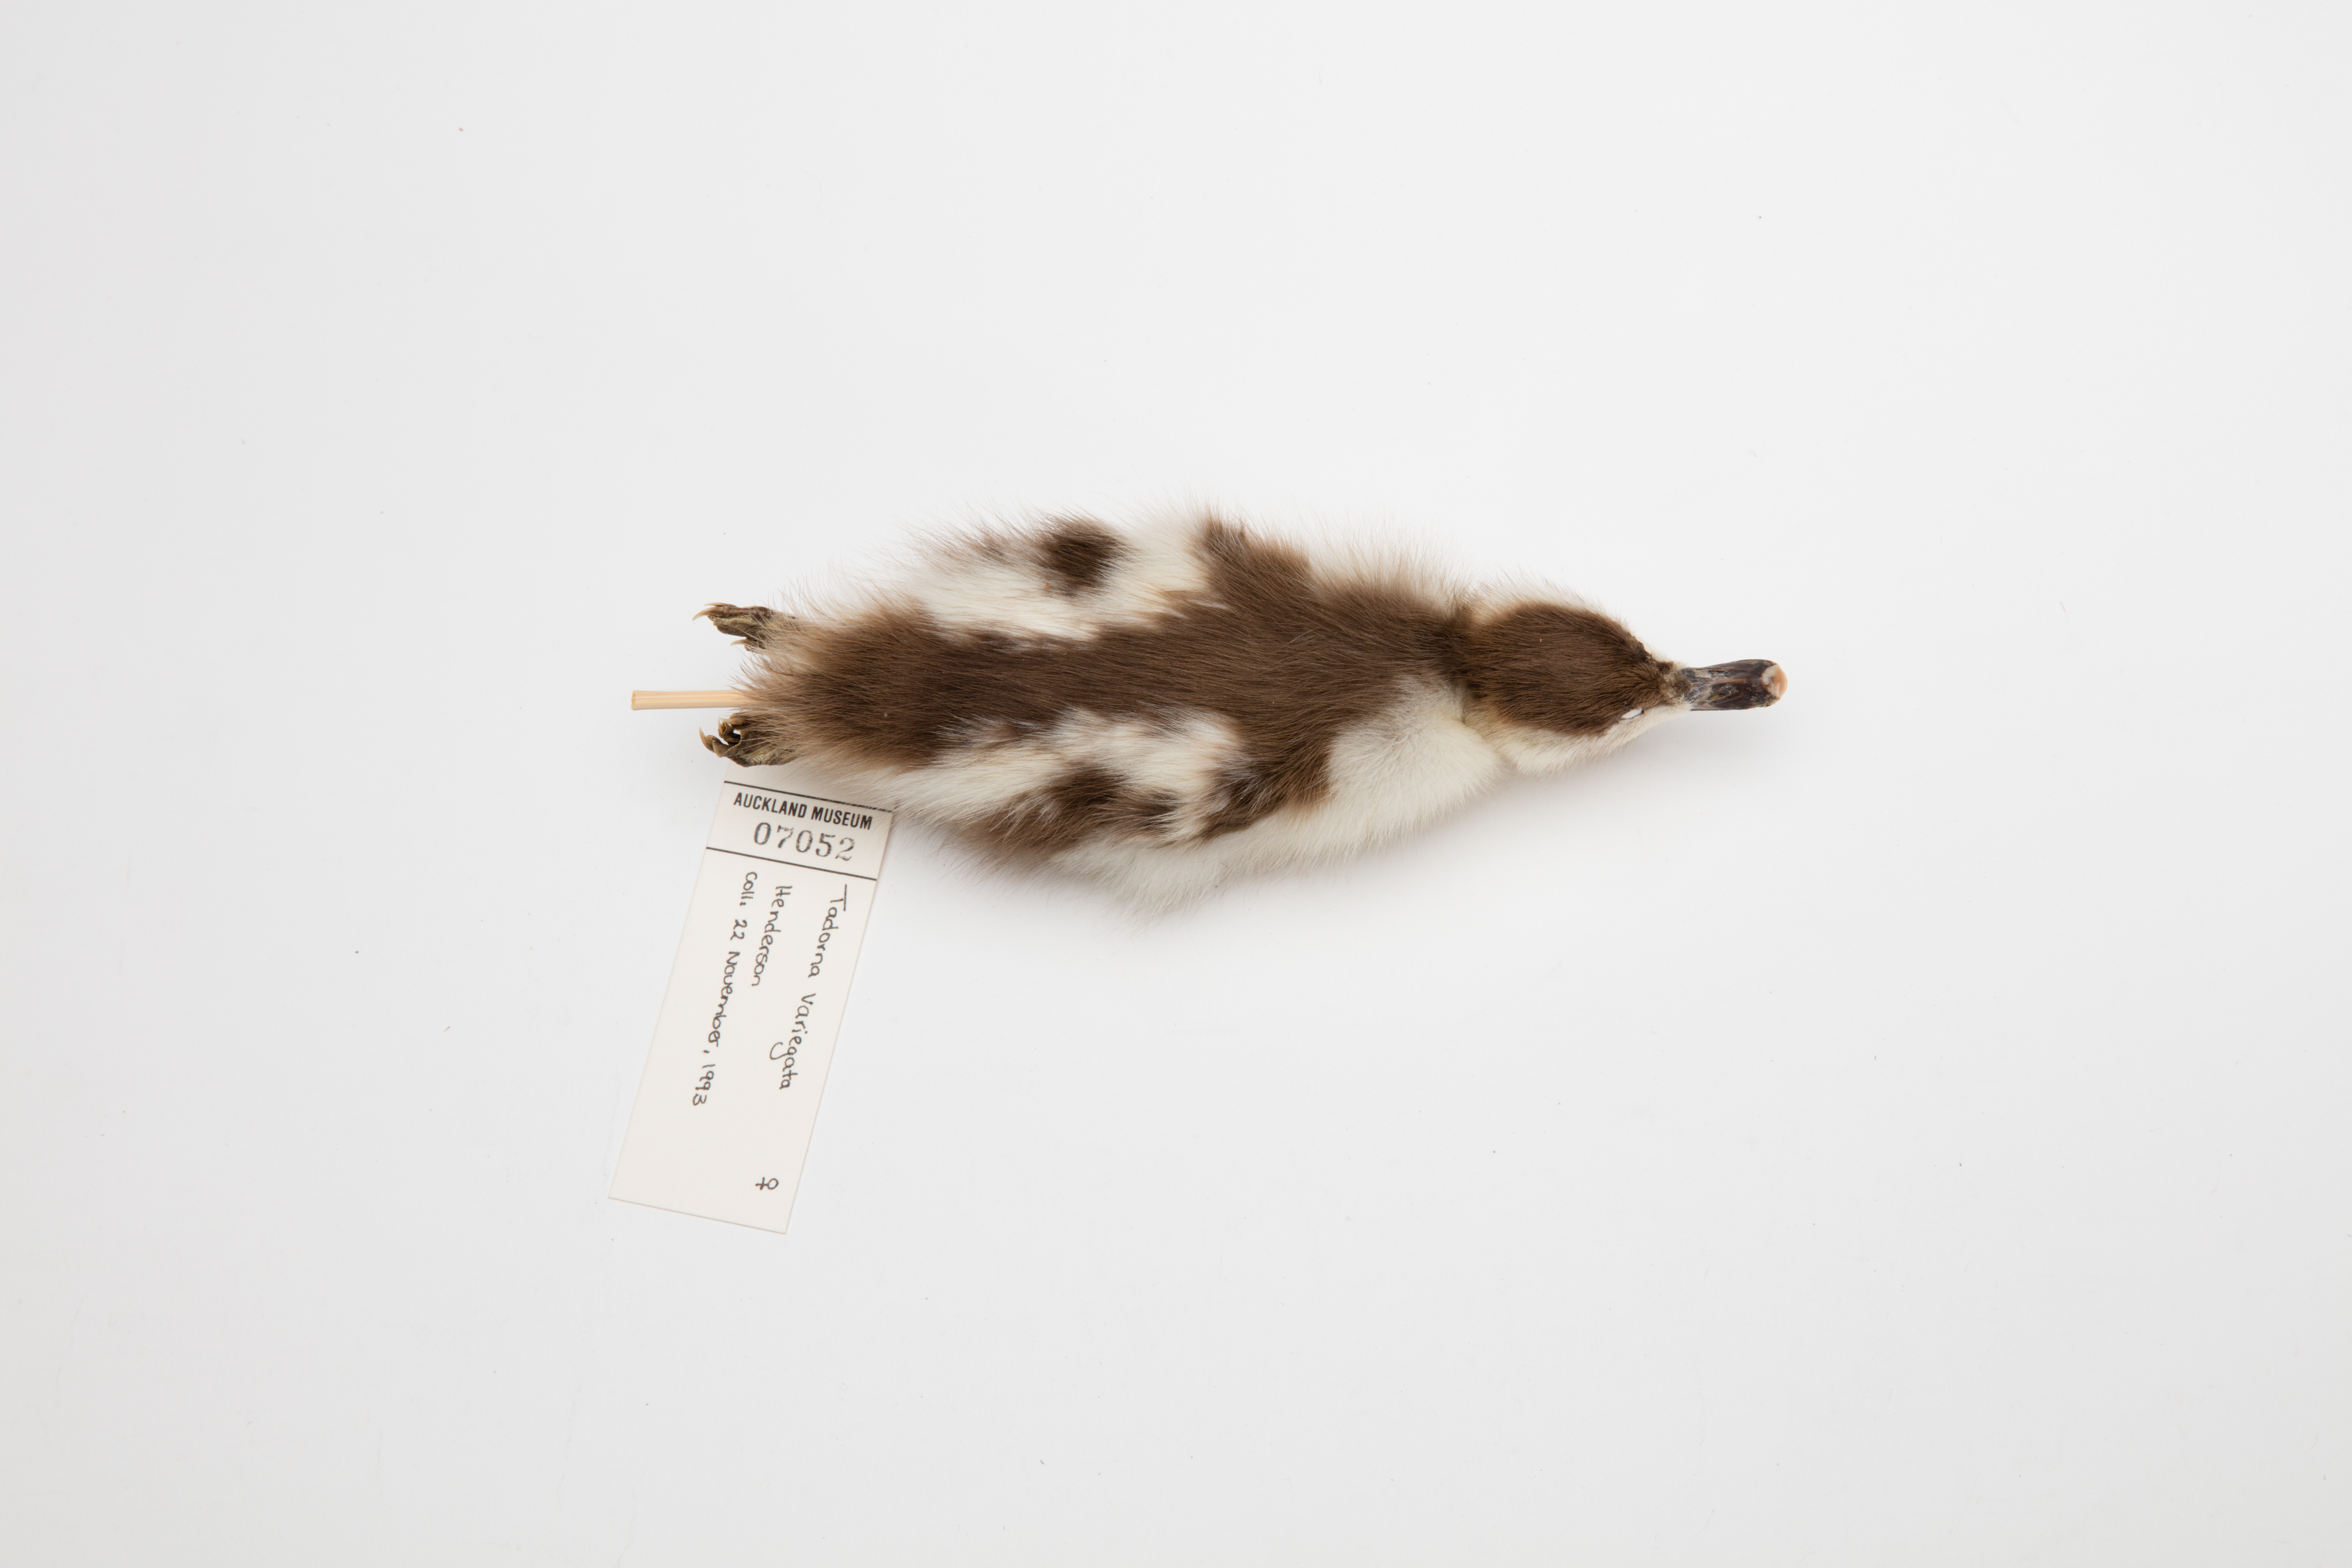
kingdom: Animalia
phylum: Chordata
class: Aves
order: Anseriformes
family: Anatidae
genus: Tadorna
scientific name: Tadorna variegata
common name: Paradise shelduck
